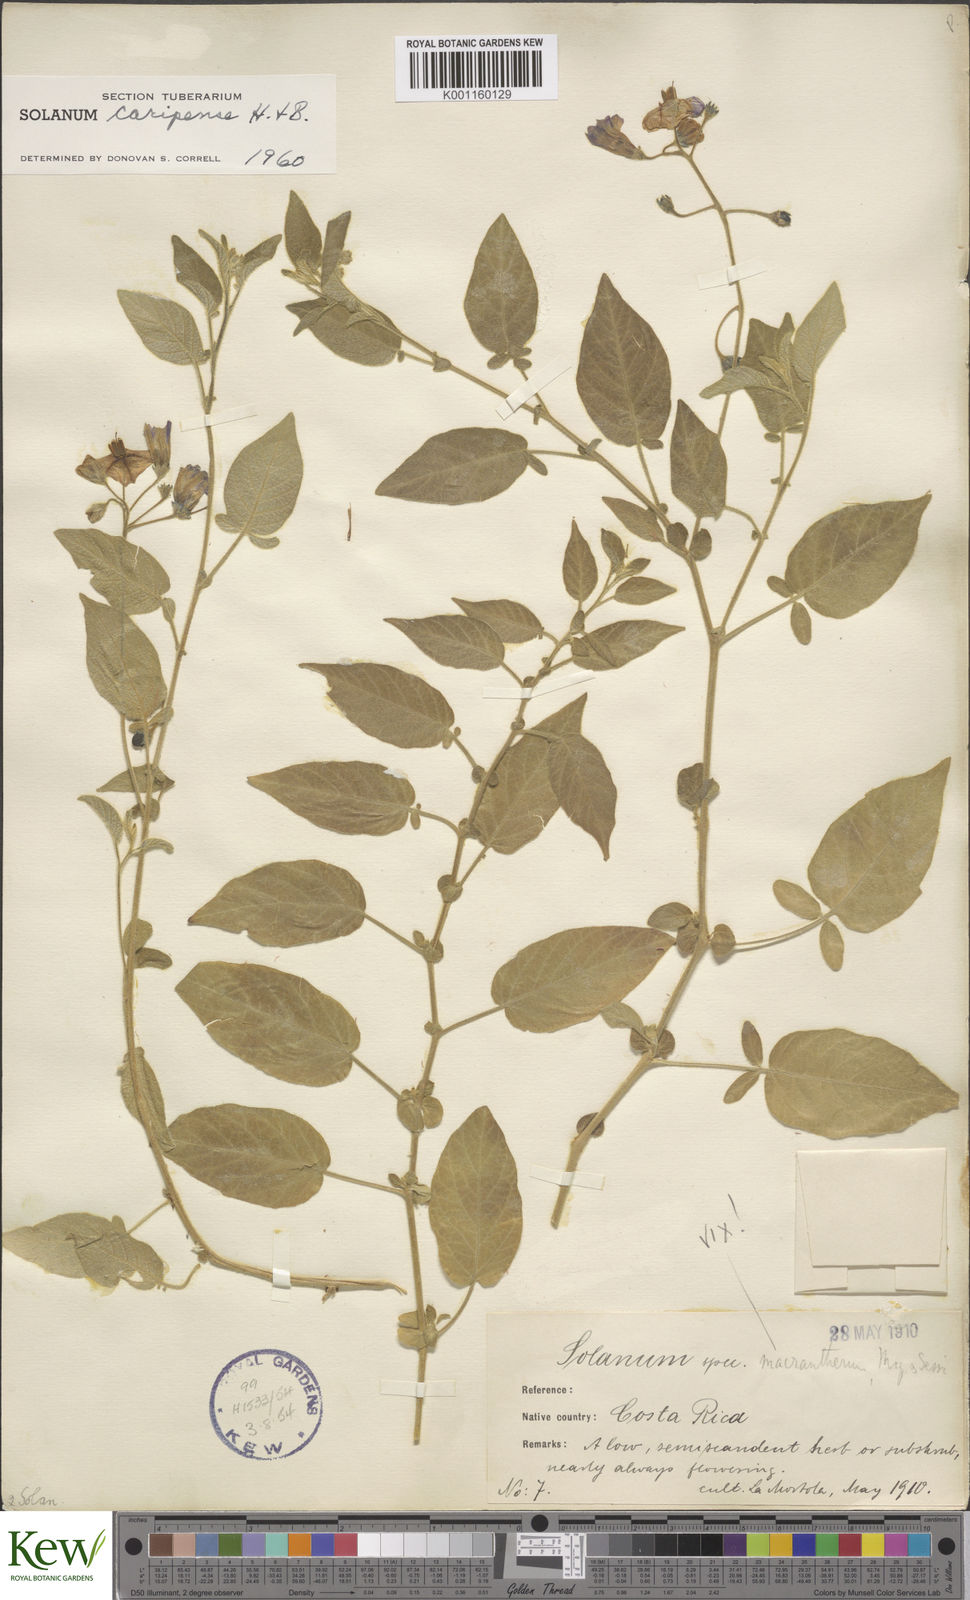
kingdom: Plantae
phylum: Tracheophyta
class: Magnoliopsida
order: Solanales
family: Solanaceae
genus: Solanum
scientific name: Solanum caripense
